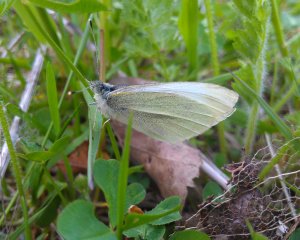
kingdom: Animalia
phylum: Arthropoda
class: Insecta
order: Lepidoptera
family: Pieridae
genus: Pieris
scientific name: Pieris rapae
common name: Cabbage White
